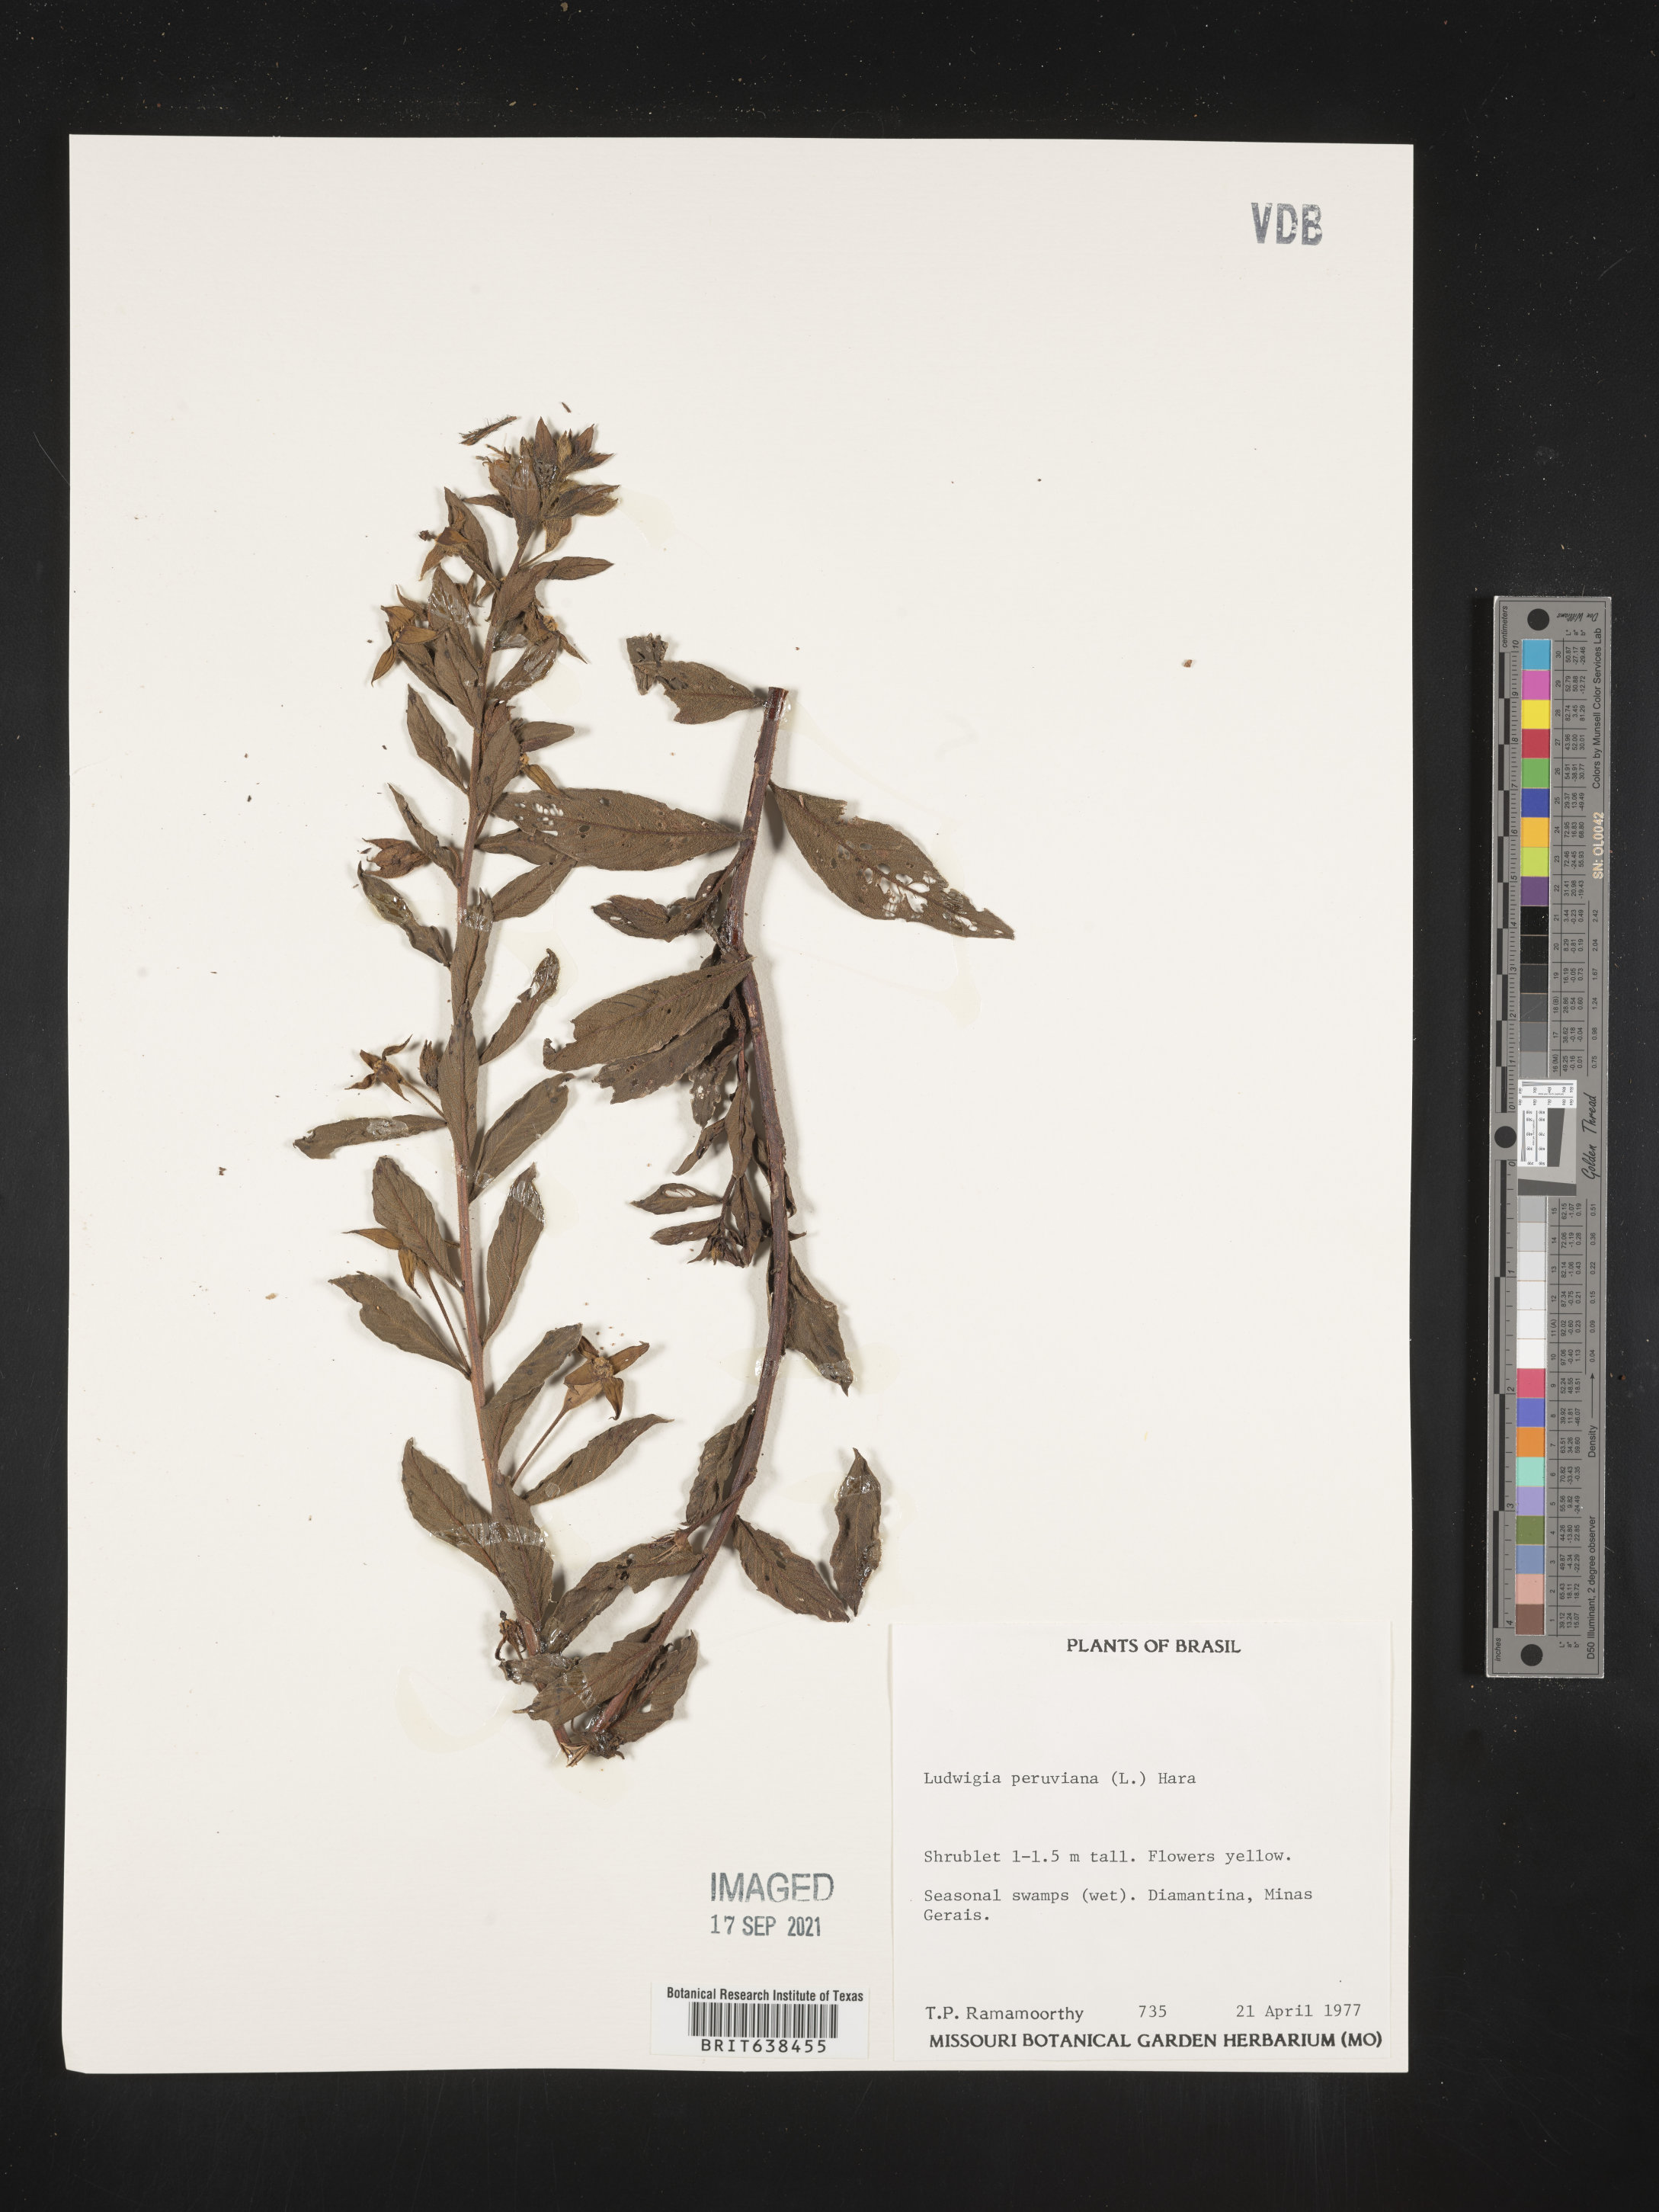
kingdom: Plantae
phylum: Tracheophyta
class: Magnoliopsida
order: Myrtales
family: Onagraceae
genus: Ludwigia
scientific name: Ludwigia
